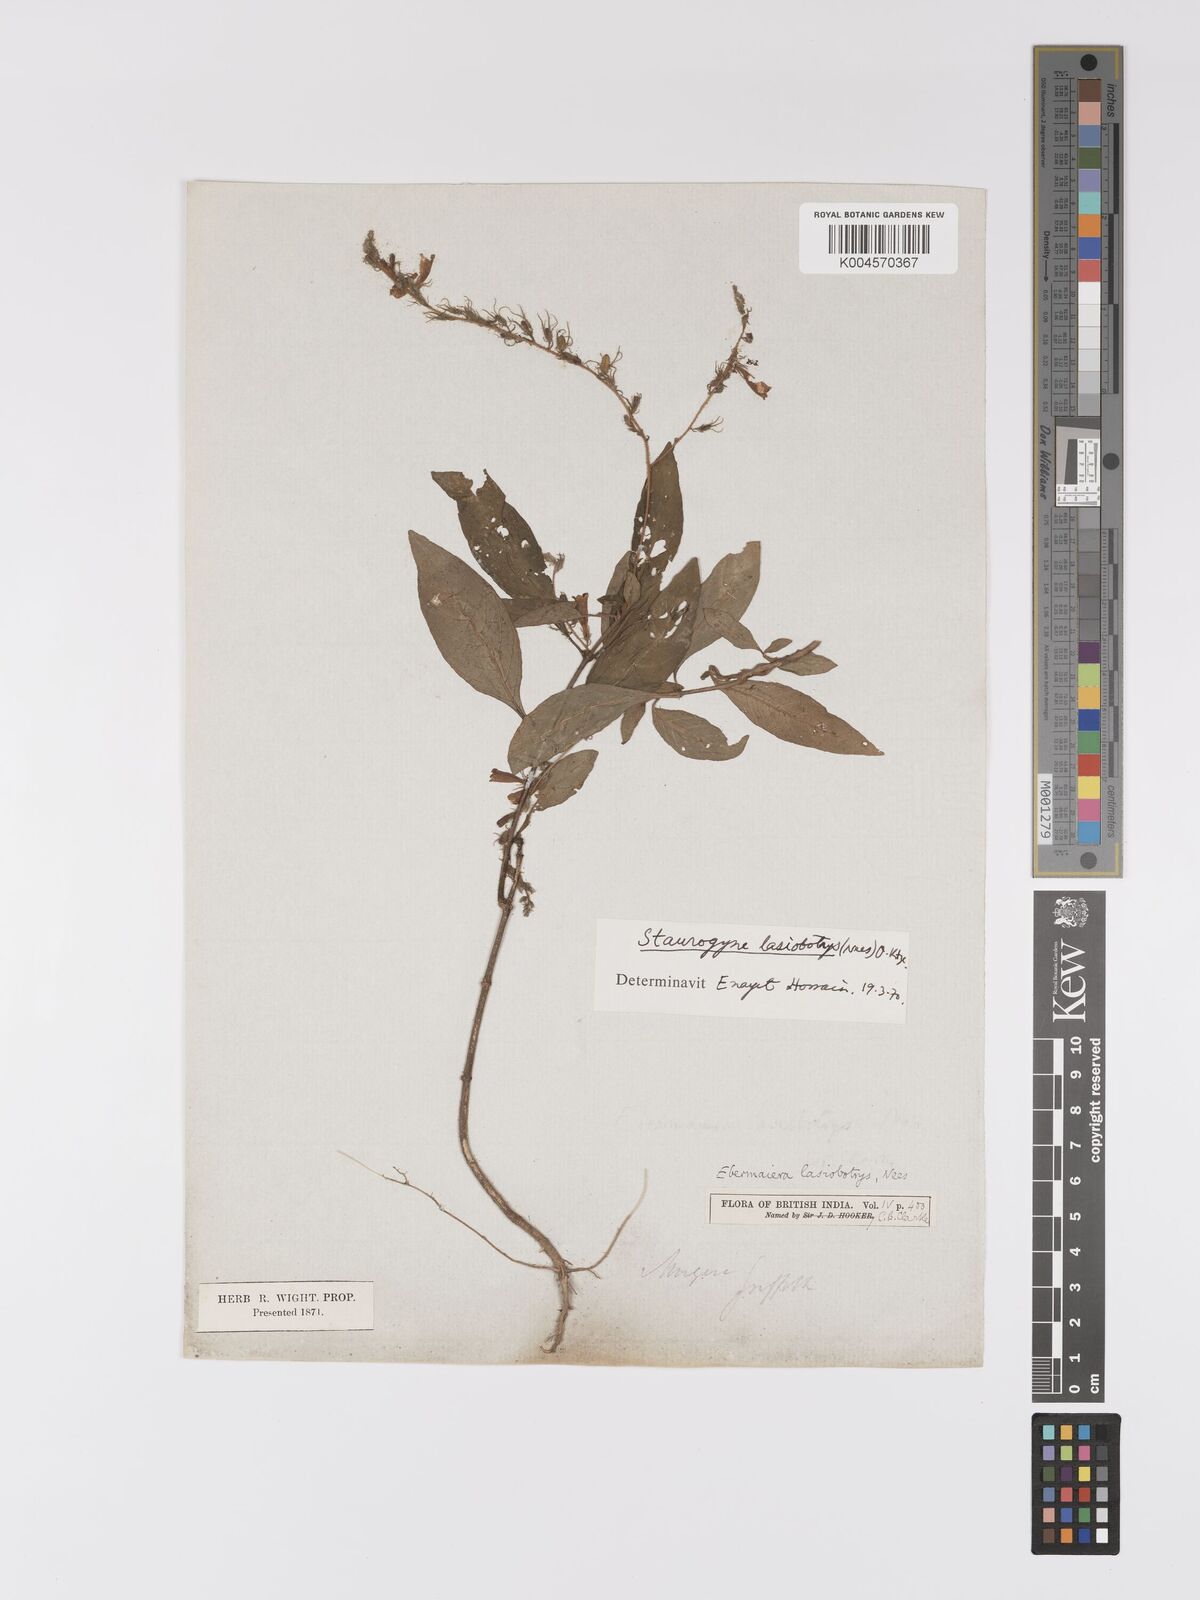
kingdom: Plantae
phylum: Tracheophyta
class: Magnoliopsida
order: Lamiales
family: Acanthaceae
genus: Staurogyne
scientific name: Staurogyne lasiobotrys
